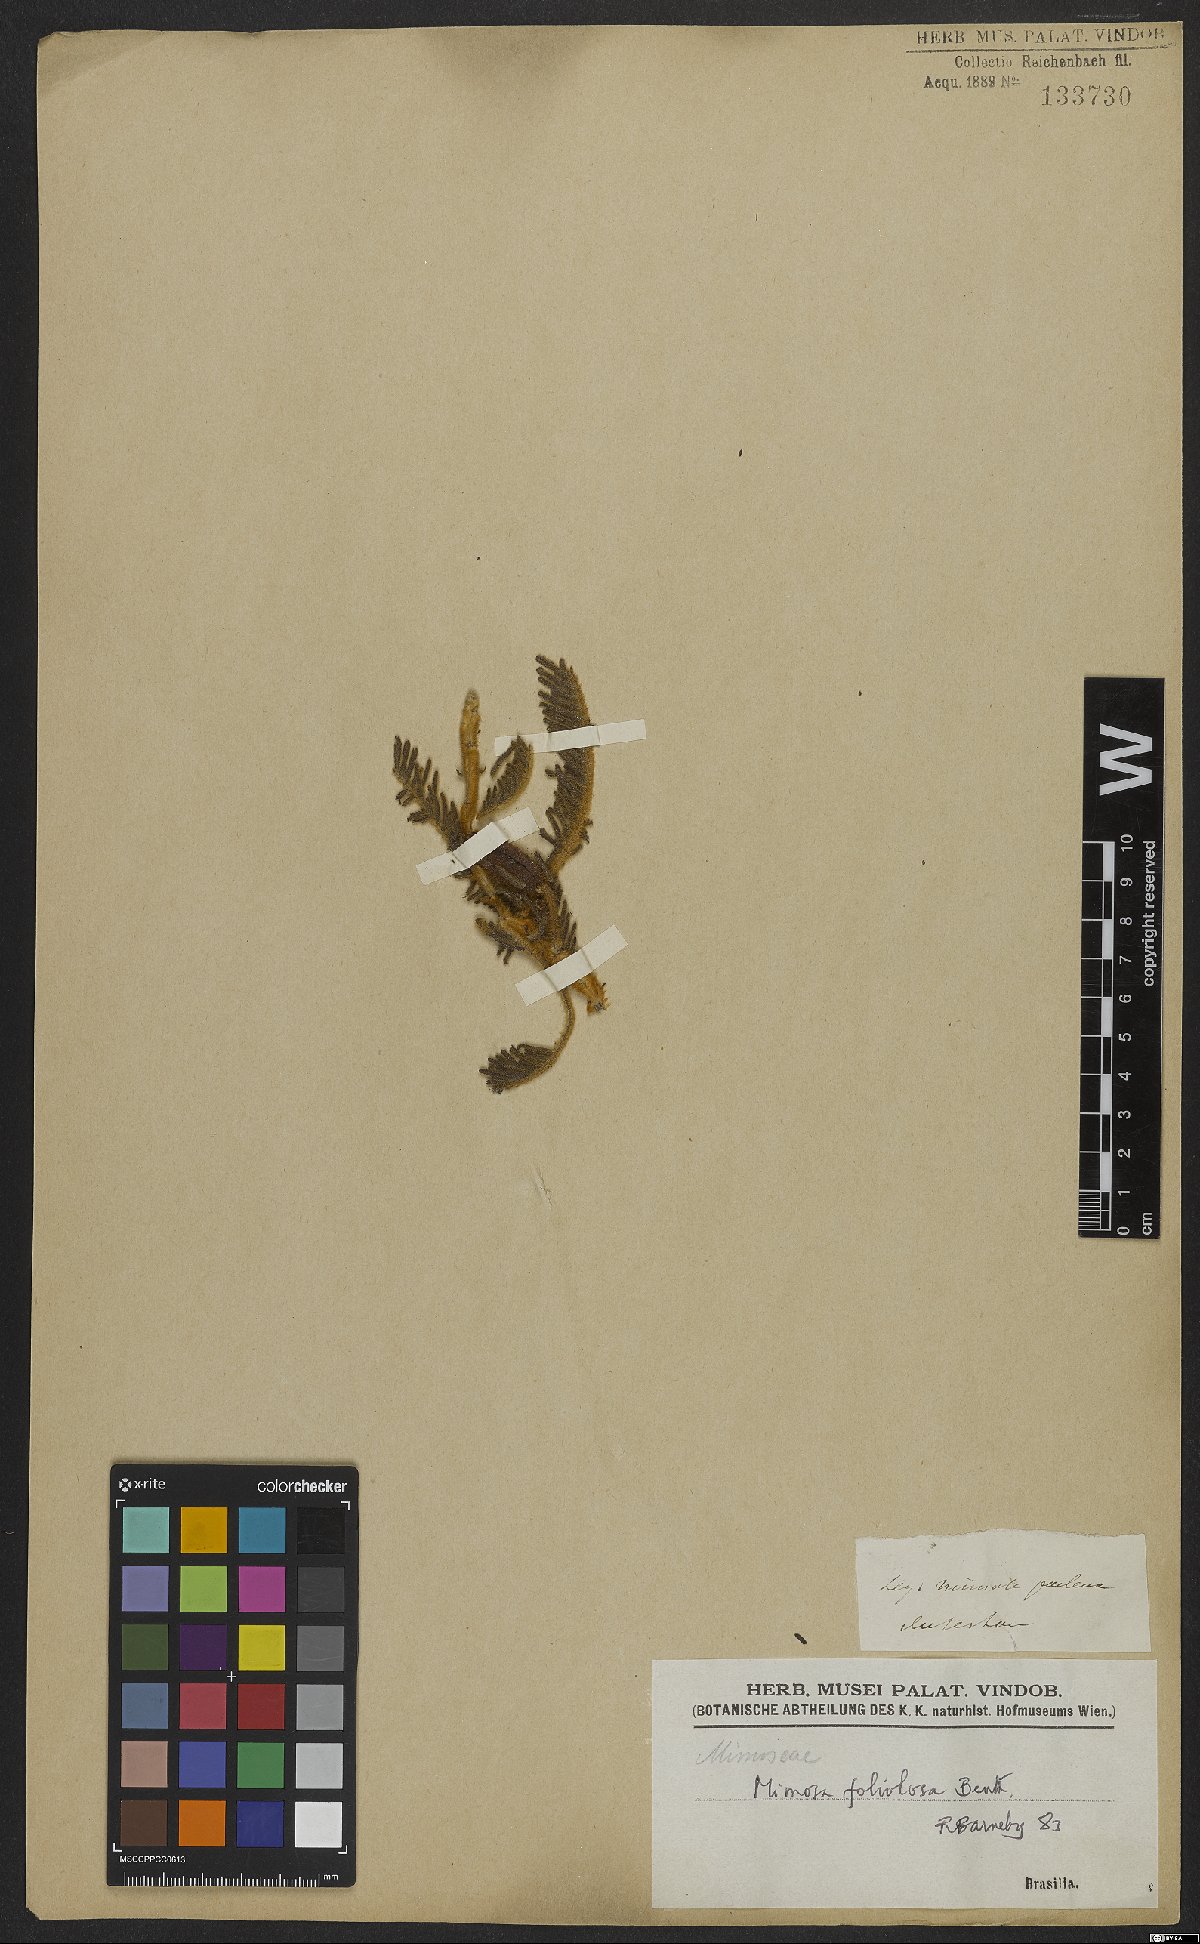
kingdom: Plantae
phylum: Tracheophyta
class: Magnoliopsida
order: Fabales
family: Fabaceae
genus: Mimosa
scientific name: Mimosa foliolosa
